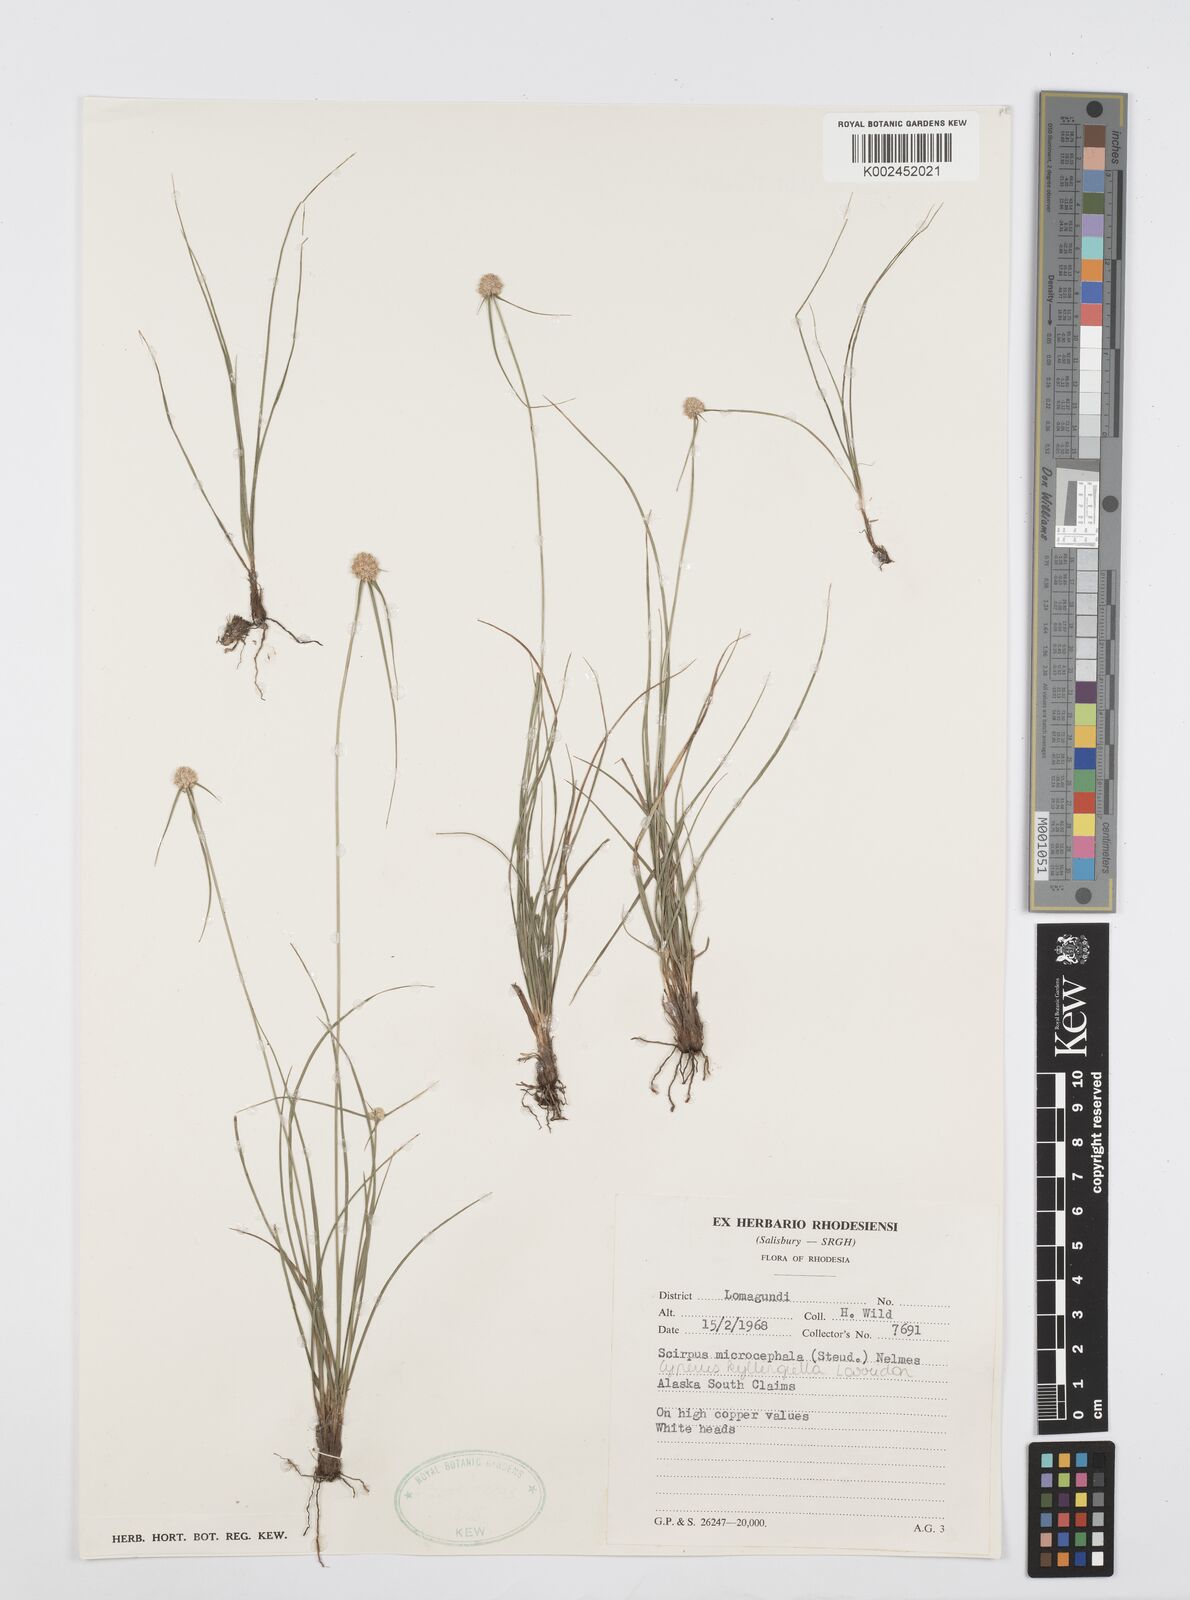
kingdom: Plantae
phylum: Tracheophyta
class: Liliopsida
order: Poales
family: Cyperaceae
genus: Cyperus
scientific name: Cyperus conglobatus
